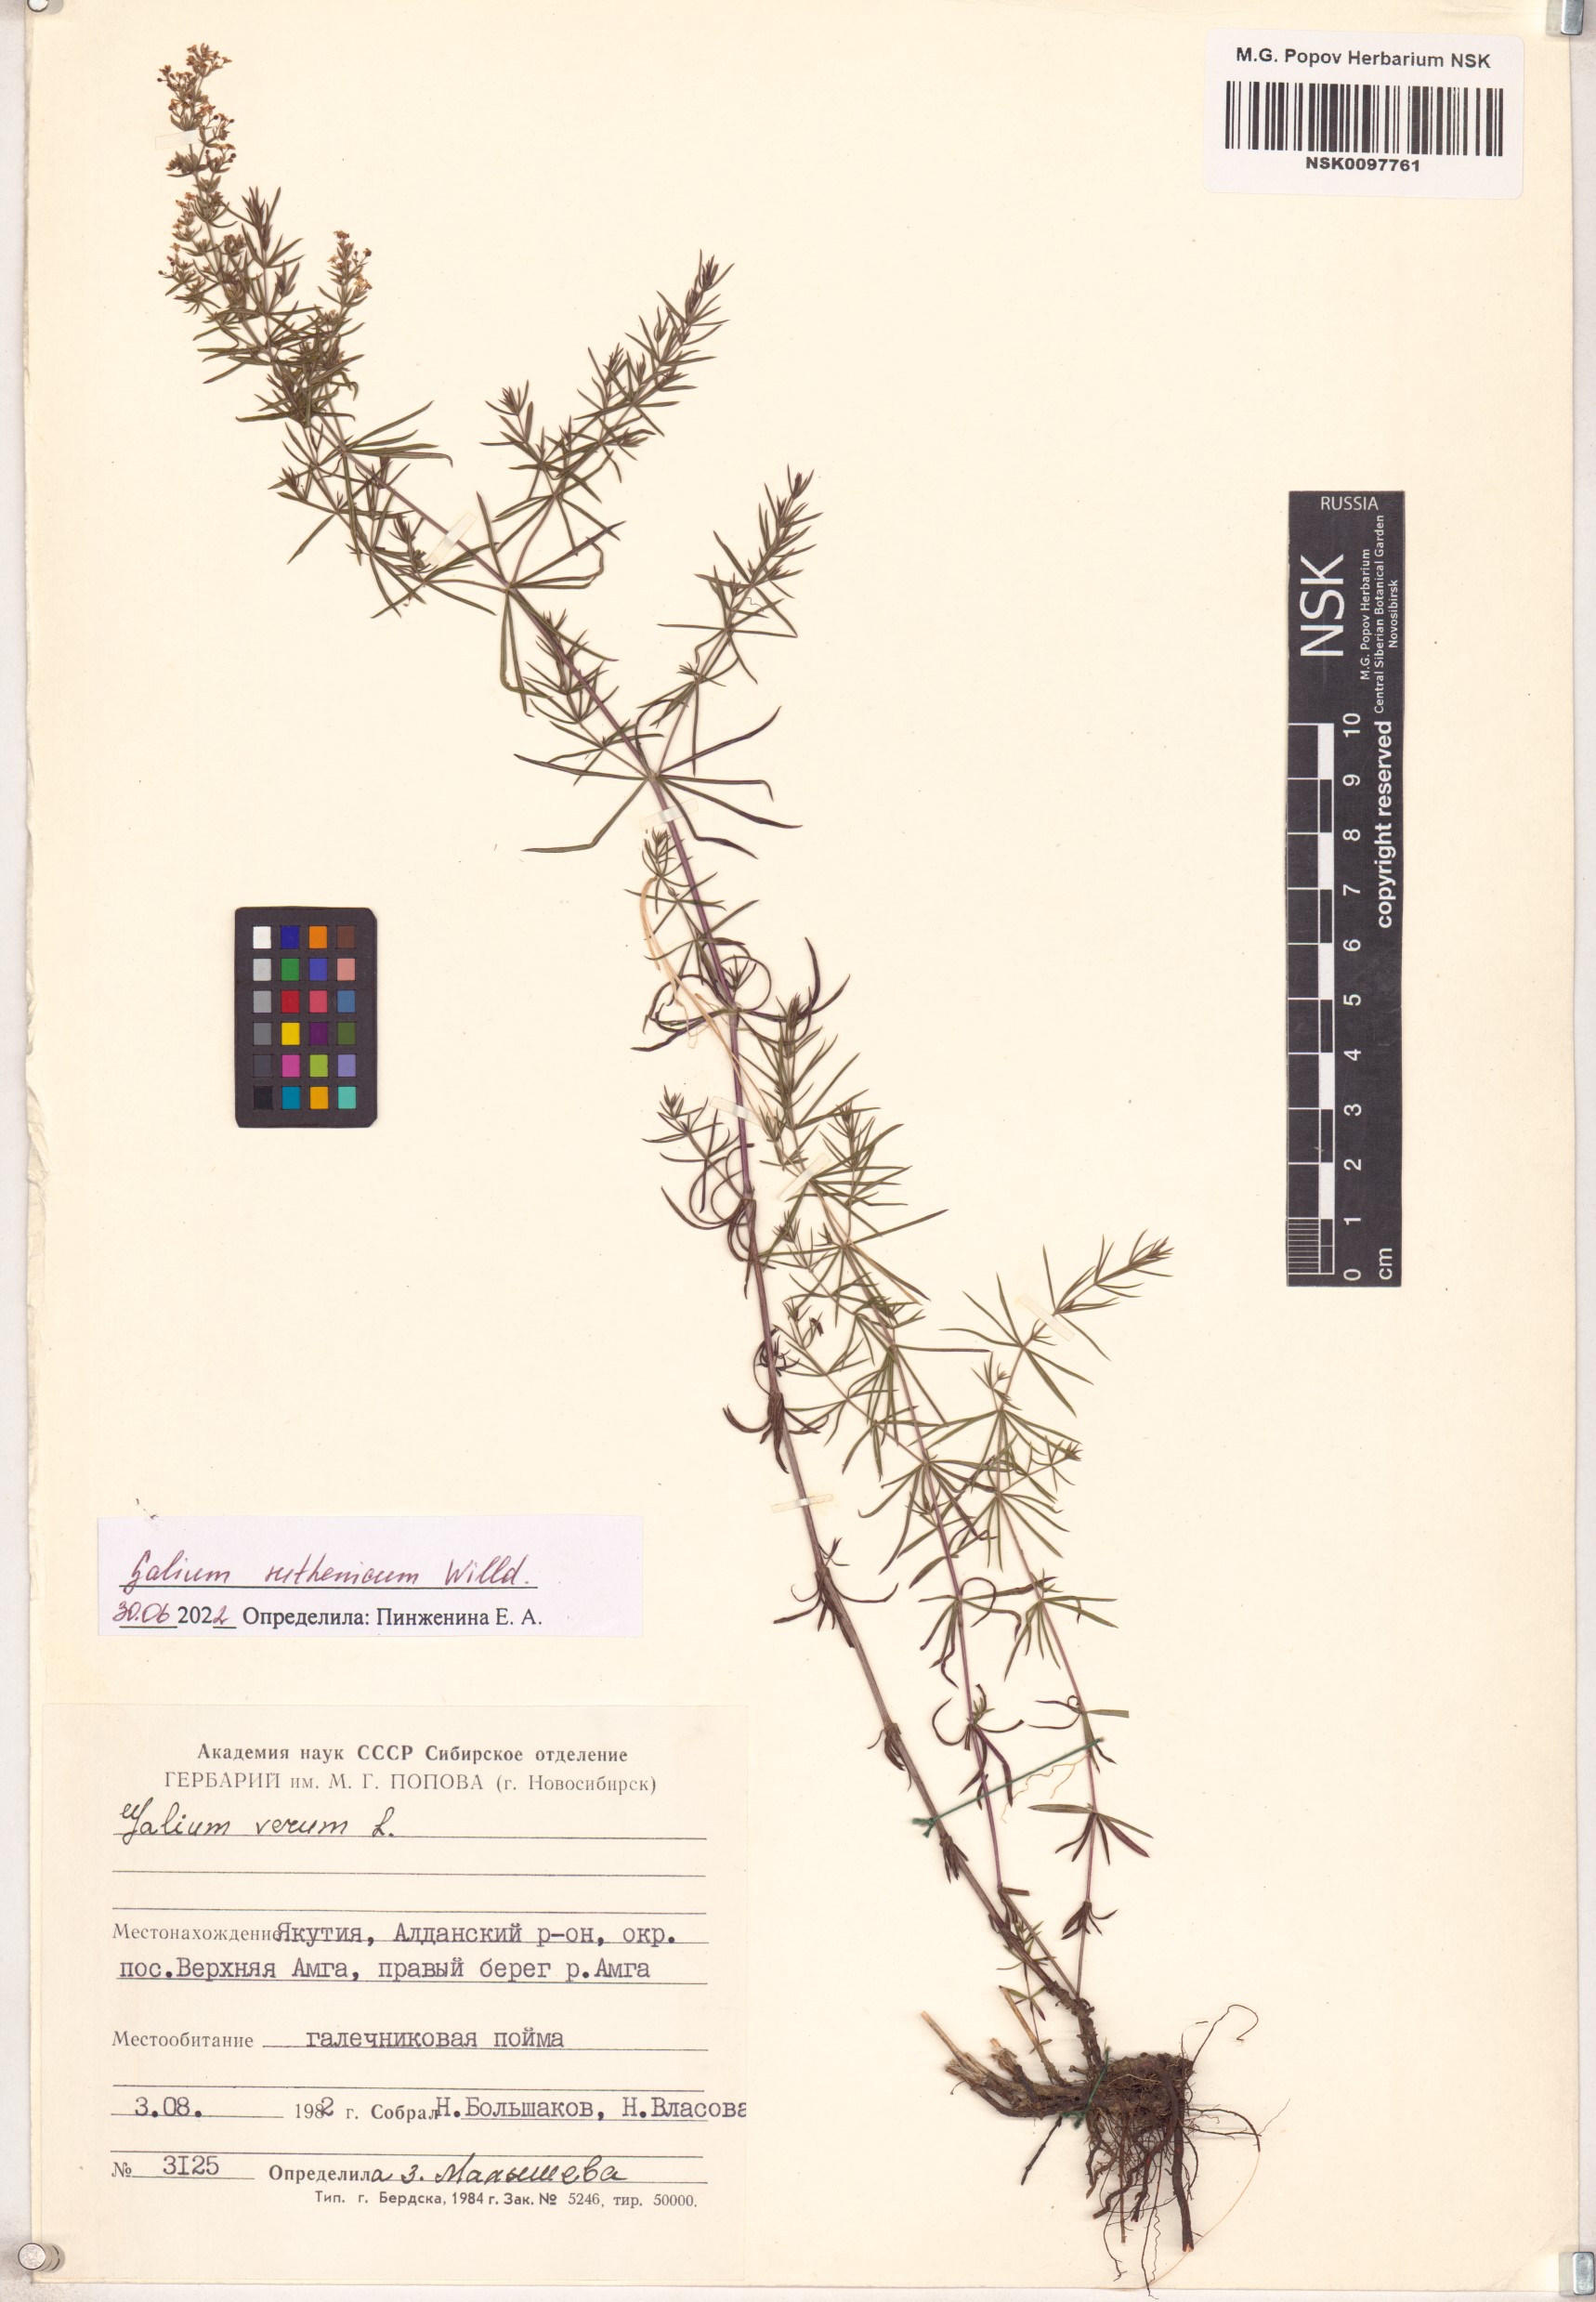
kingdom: Plantae
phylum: Tracheophyta
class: Magnoliopsida
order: Gentianales
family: Rubiaceae
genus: Galium
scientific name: Galium verum
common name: Lady's bedstraw
